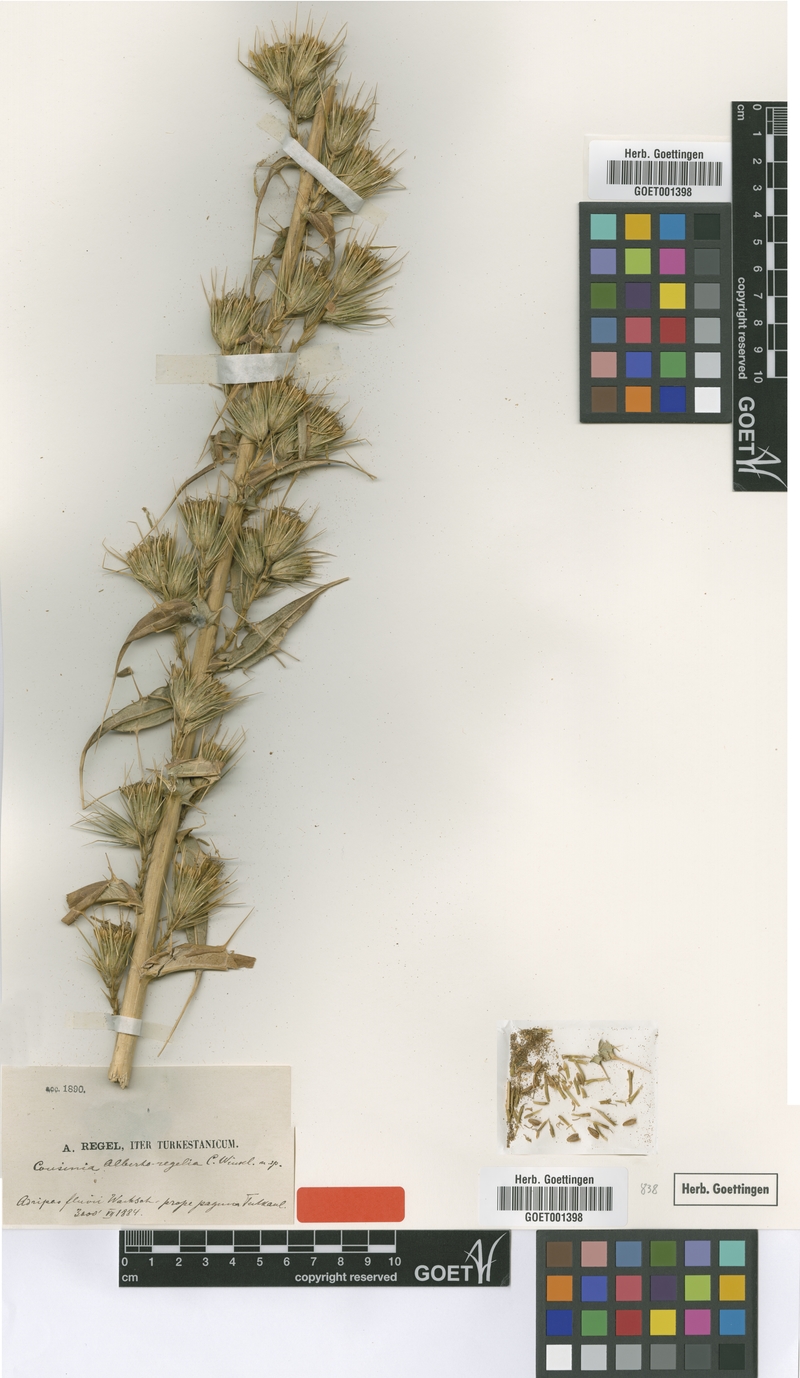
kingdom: Plantae
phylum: Tracheophyta
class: Magnoliopsida
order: Asterales
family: Asteraceae
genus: Cousinia
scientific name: Cousinia albertoregelia
